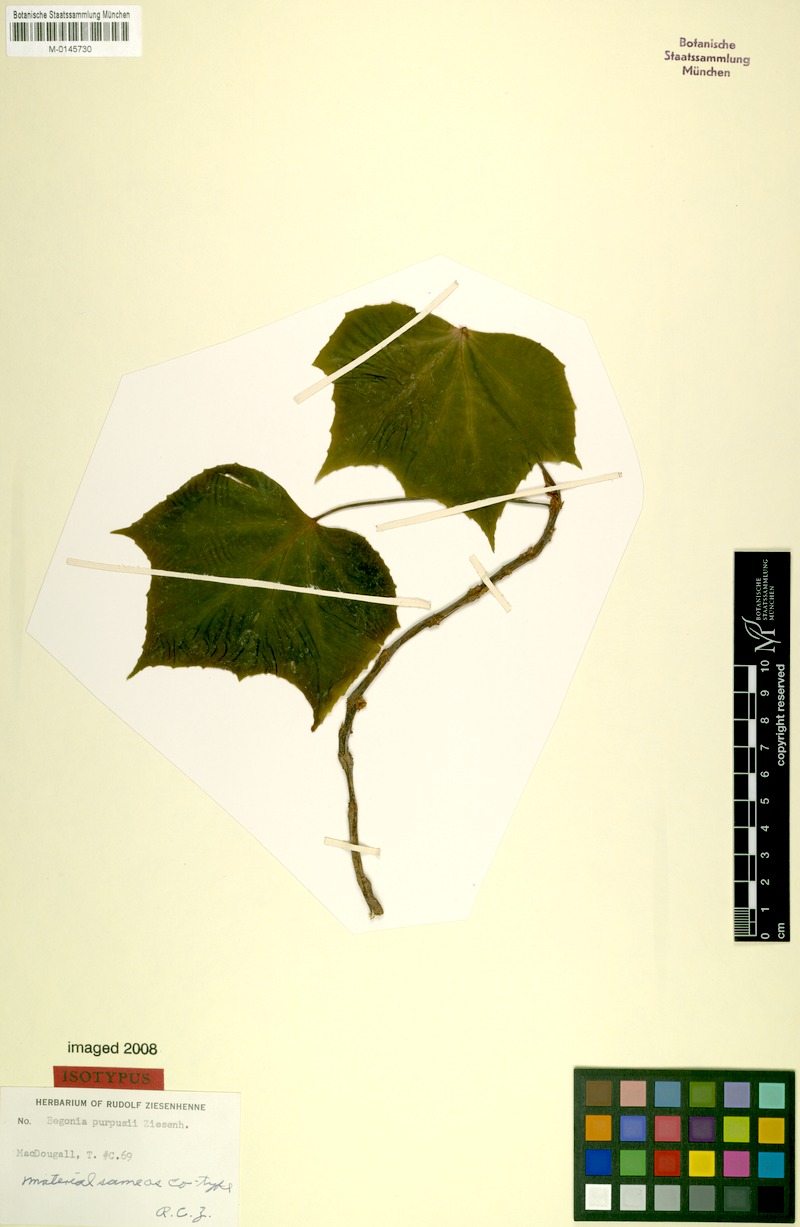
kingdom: Plantae
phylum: Tracheophyta
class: Magnoliopsida
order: Cucurbitales
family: Begoniaceae
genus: Begonia
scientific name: Begonia purpusii
